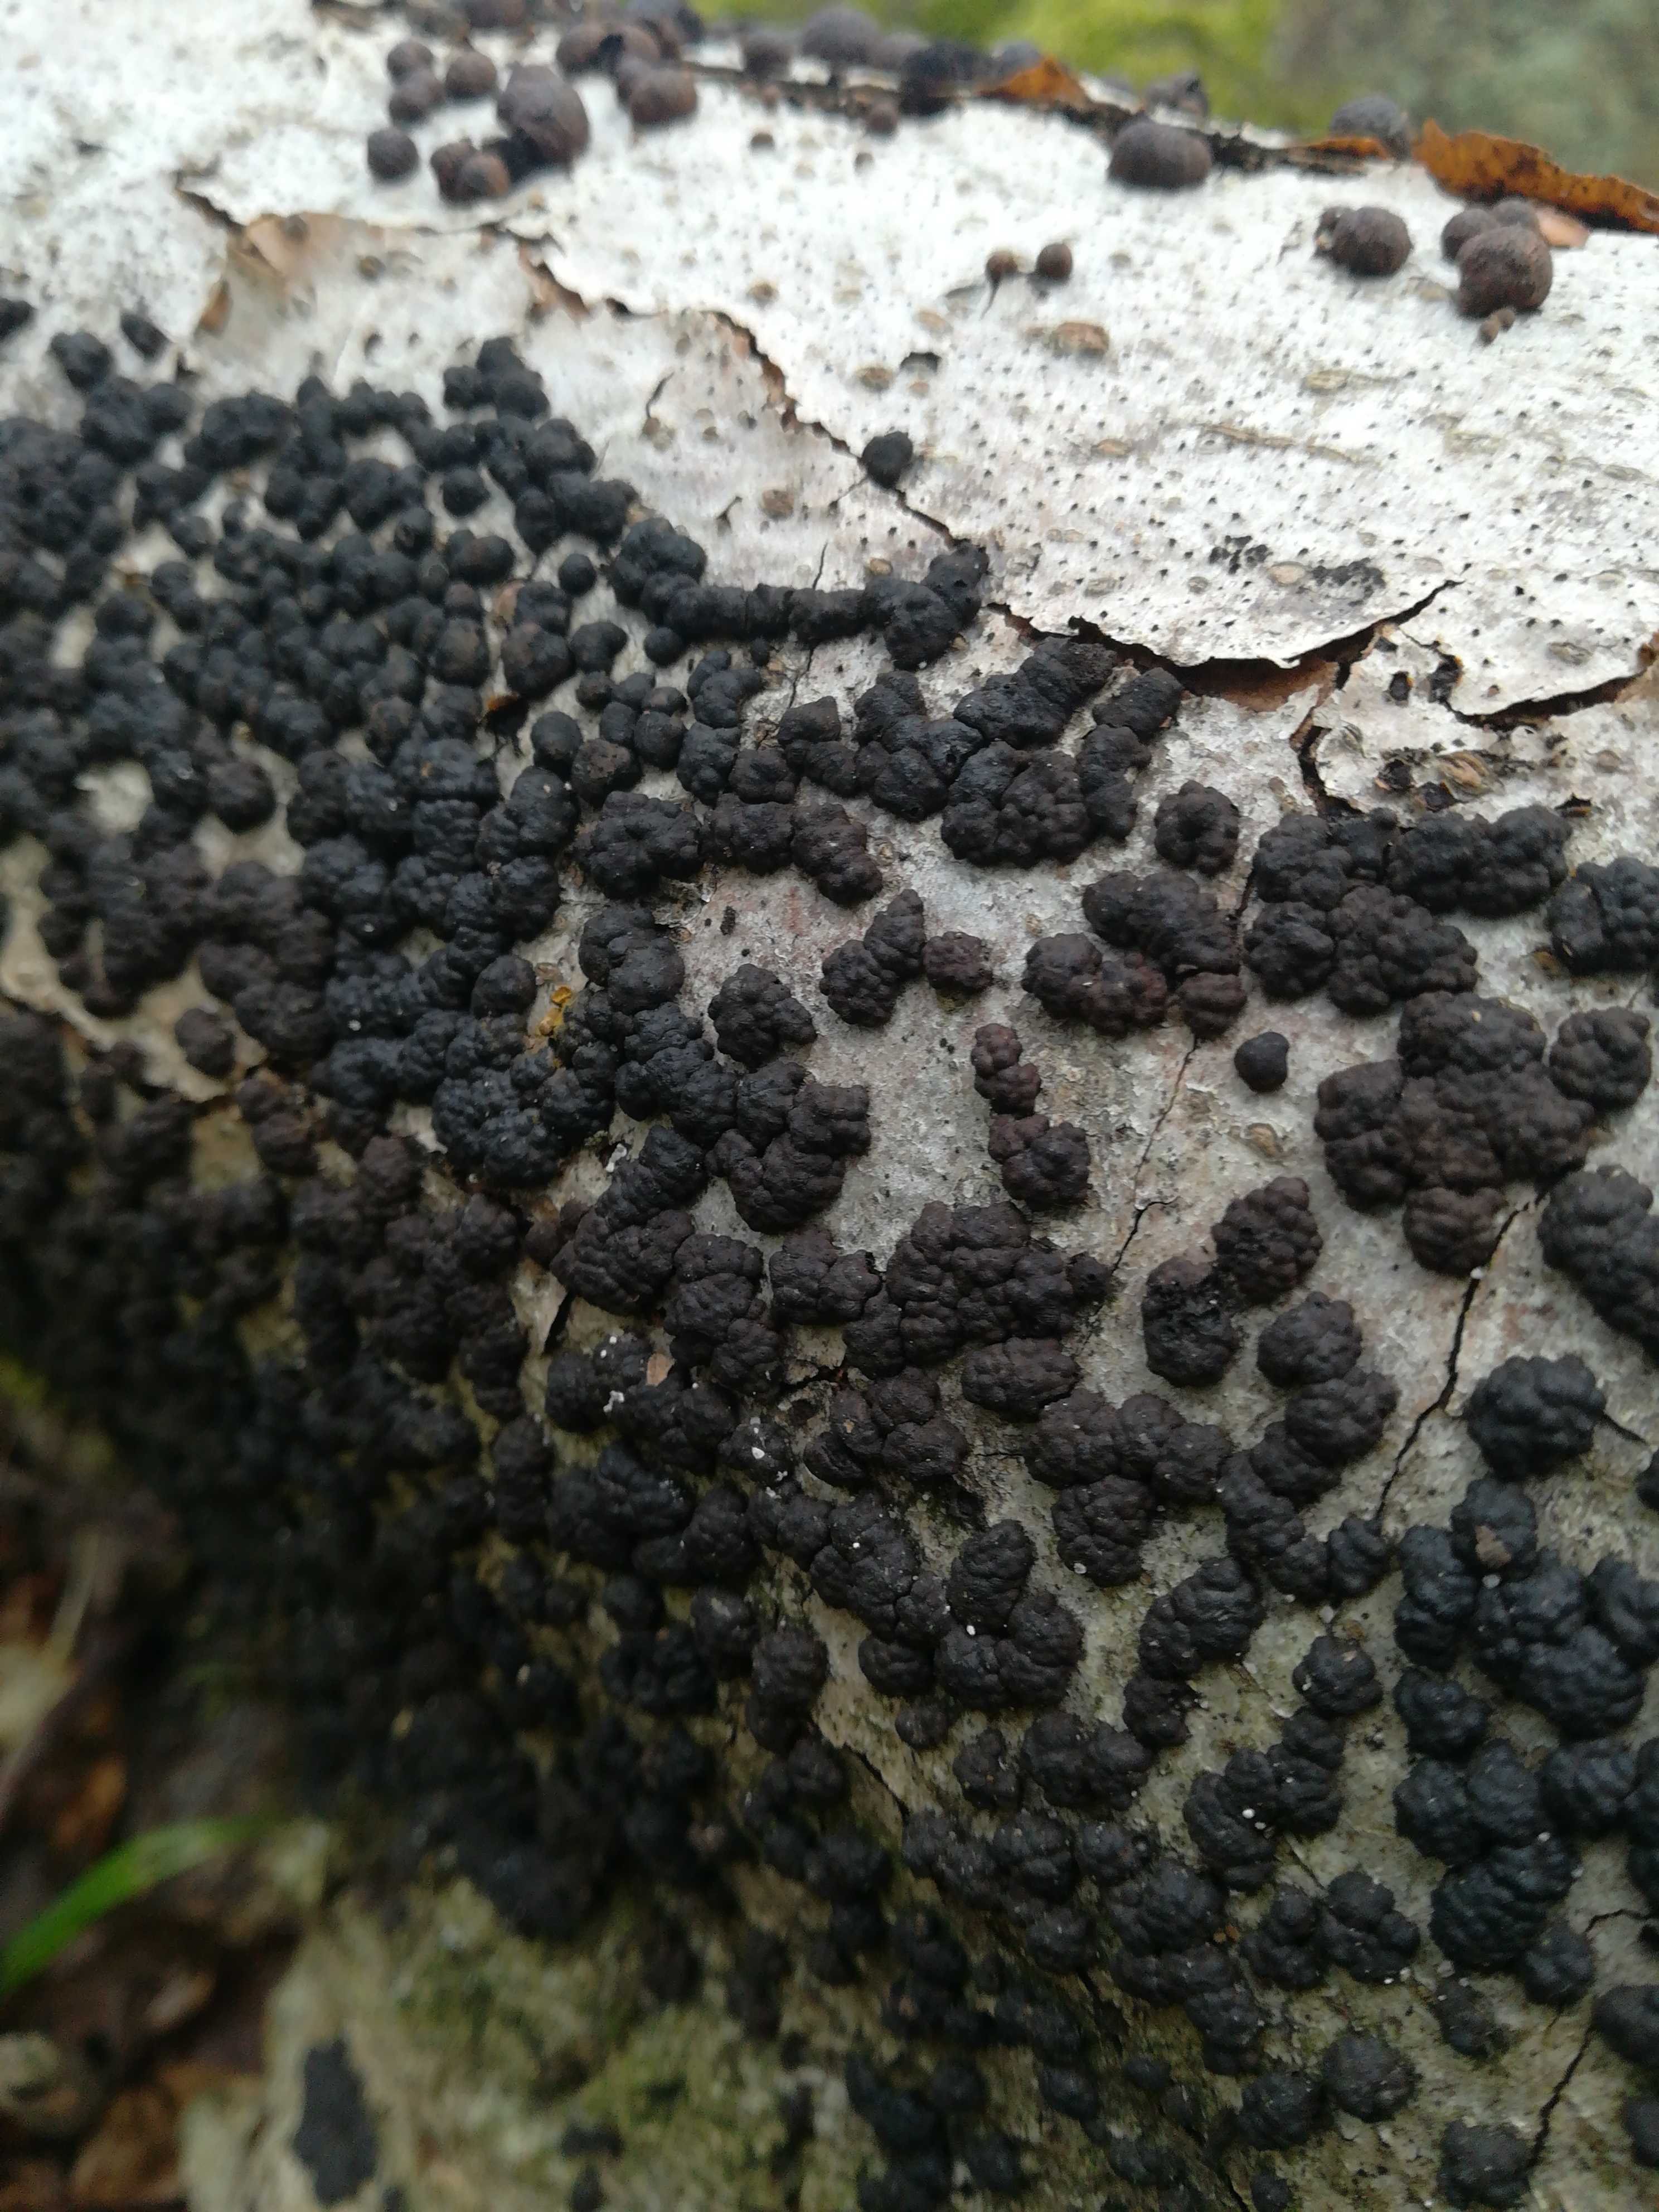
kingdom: Fungi
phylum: Ascomycota
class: Sordariomycetes
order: Xylariales
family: Hypoxylaceae
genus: Hypoxylon
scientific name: Hypoxylon fragiforme
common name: kuljordbær
